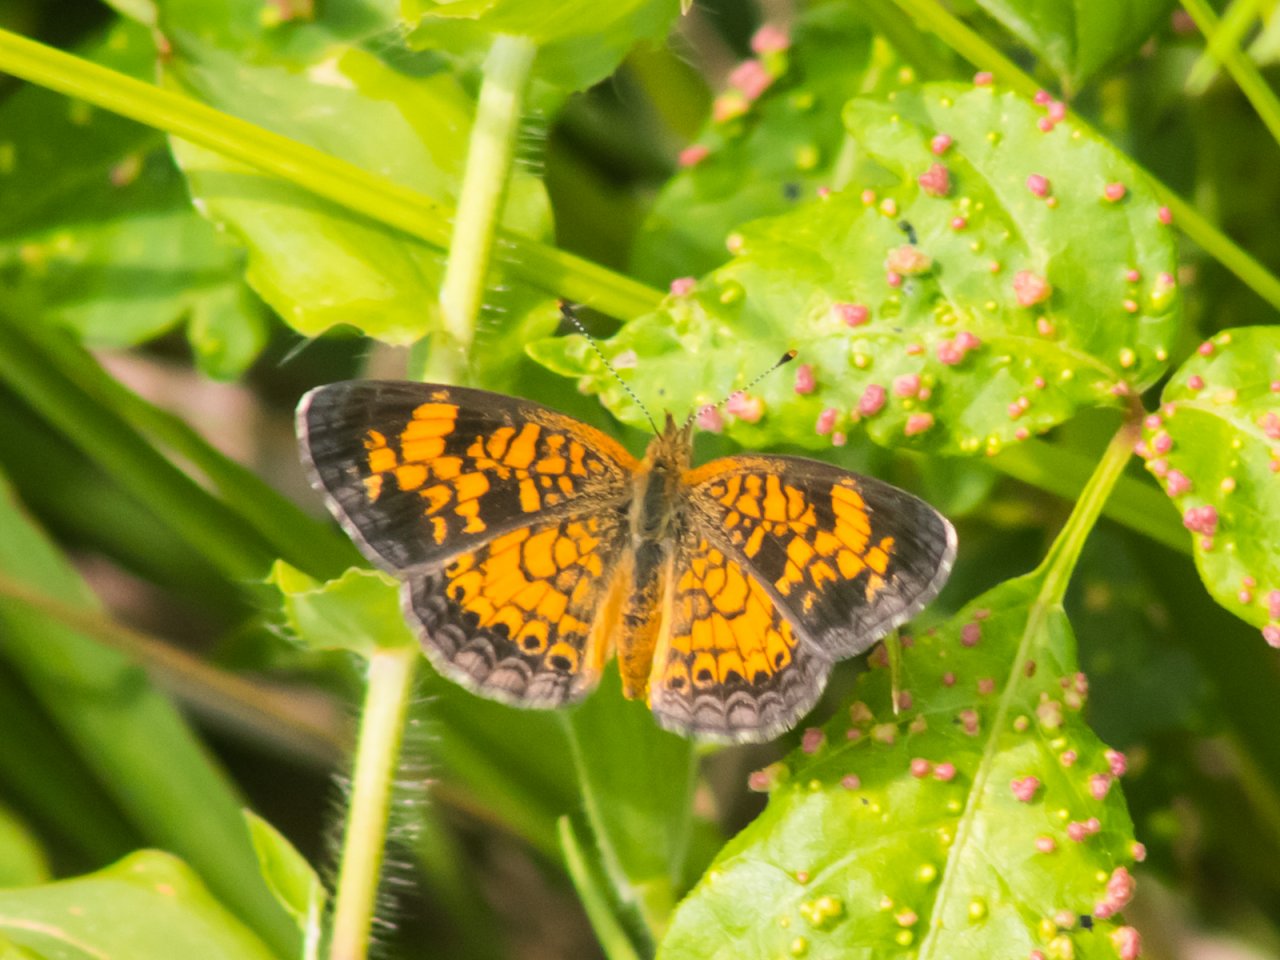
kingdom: Animalia
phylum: Arthropoda
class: Insecta
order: Lepidoptera
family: Nymphalidae
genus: Phyciodes
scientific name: Phyciodes tharos
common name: Pearl Crescent
